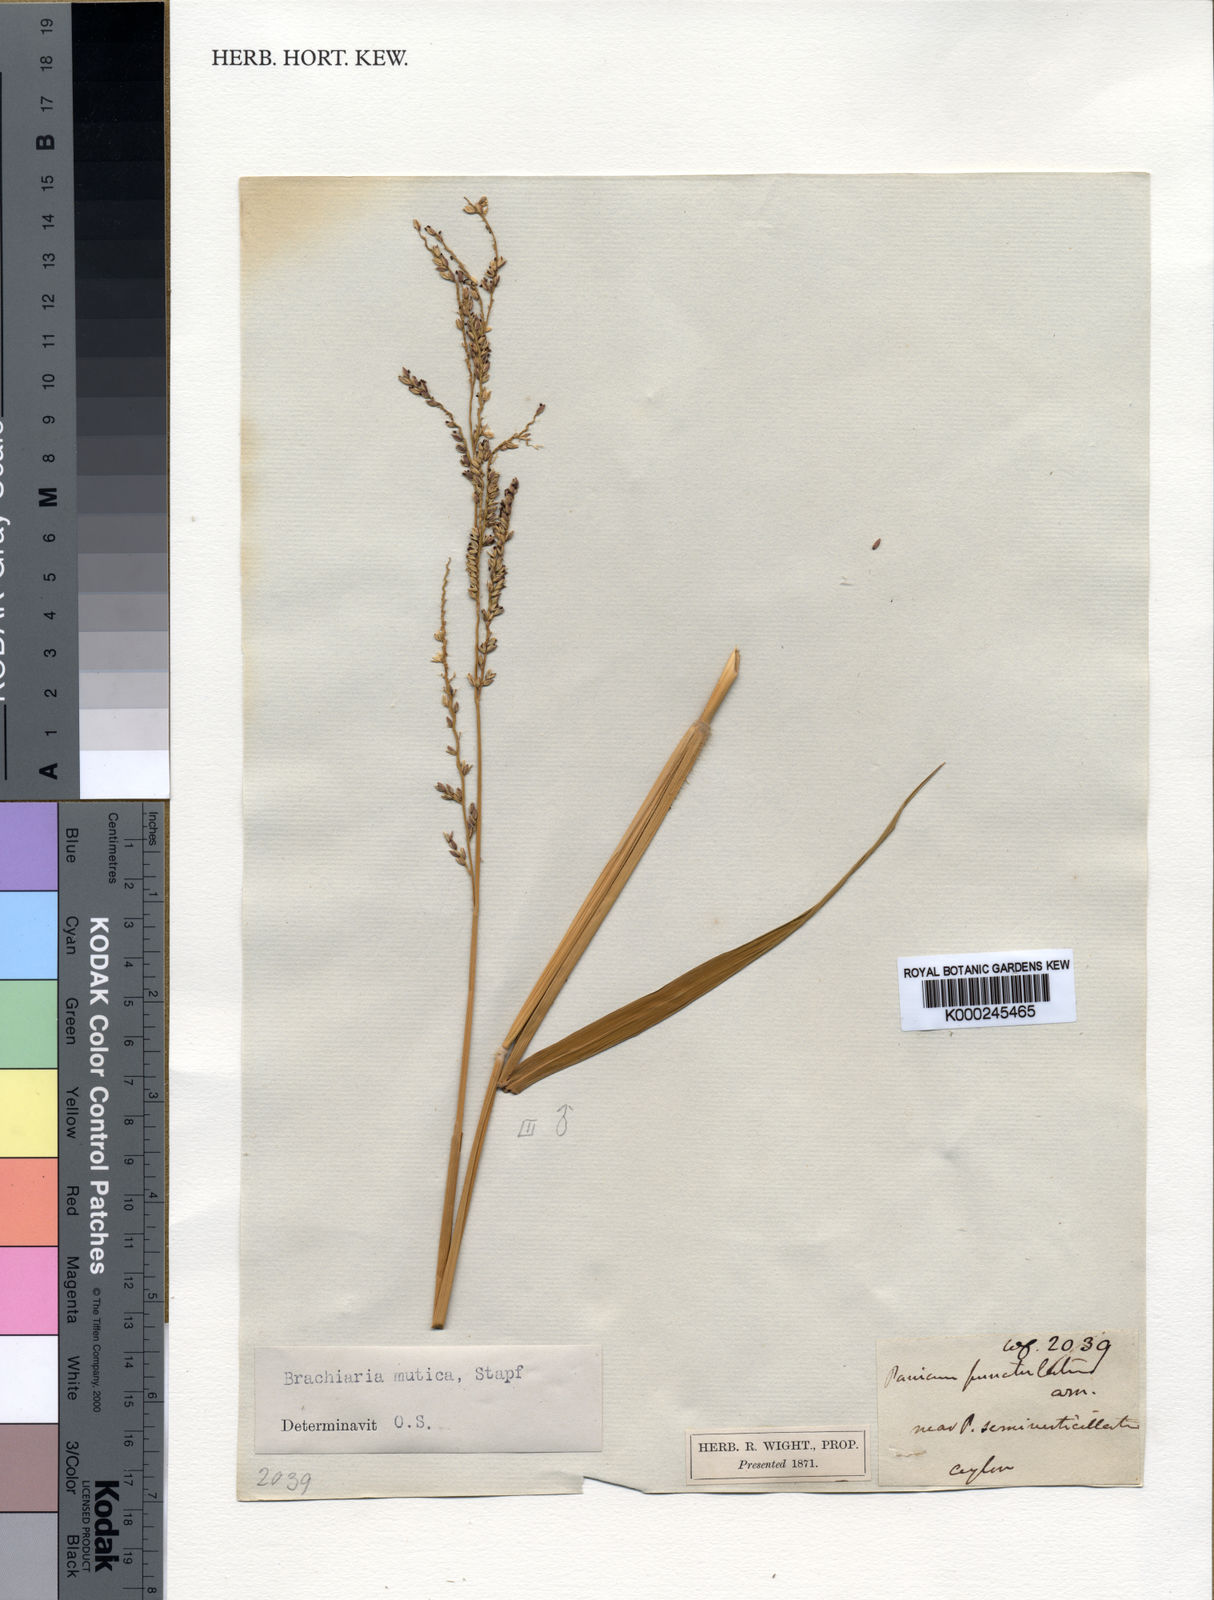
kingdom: Plantae
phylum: Tracheophyta
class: Liliopsida
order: Poales
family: Poaceae
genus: Urochloa
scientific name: Urochloa mutica
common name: Para grass
